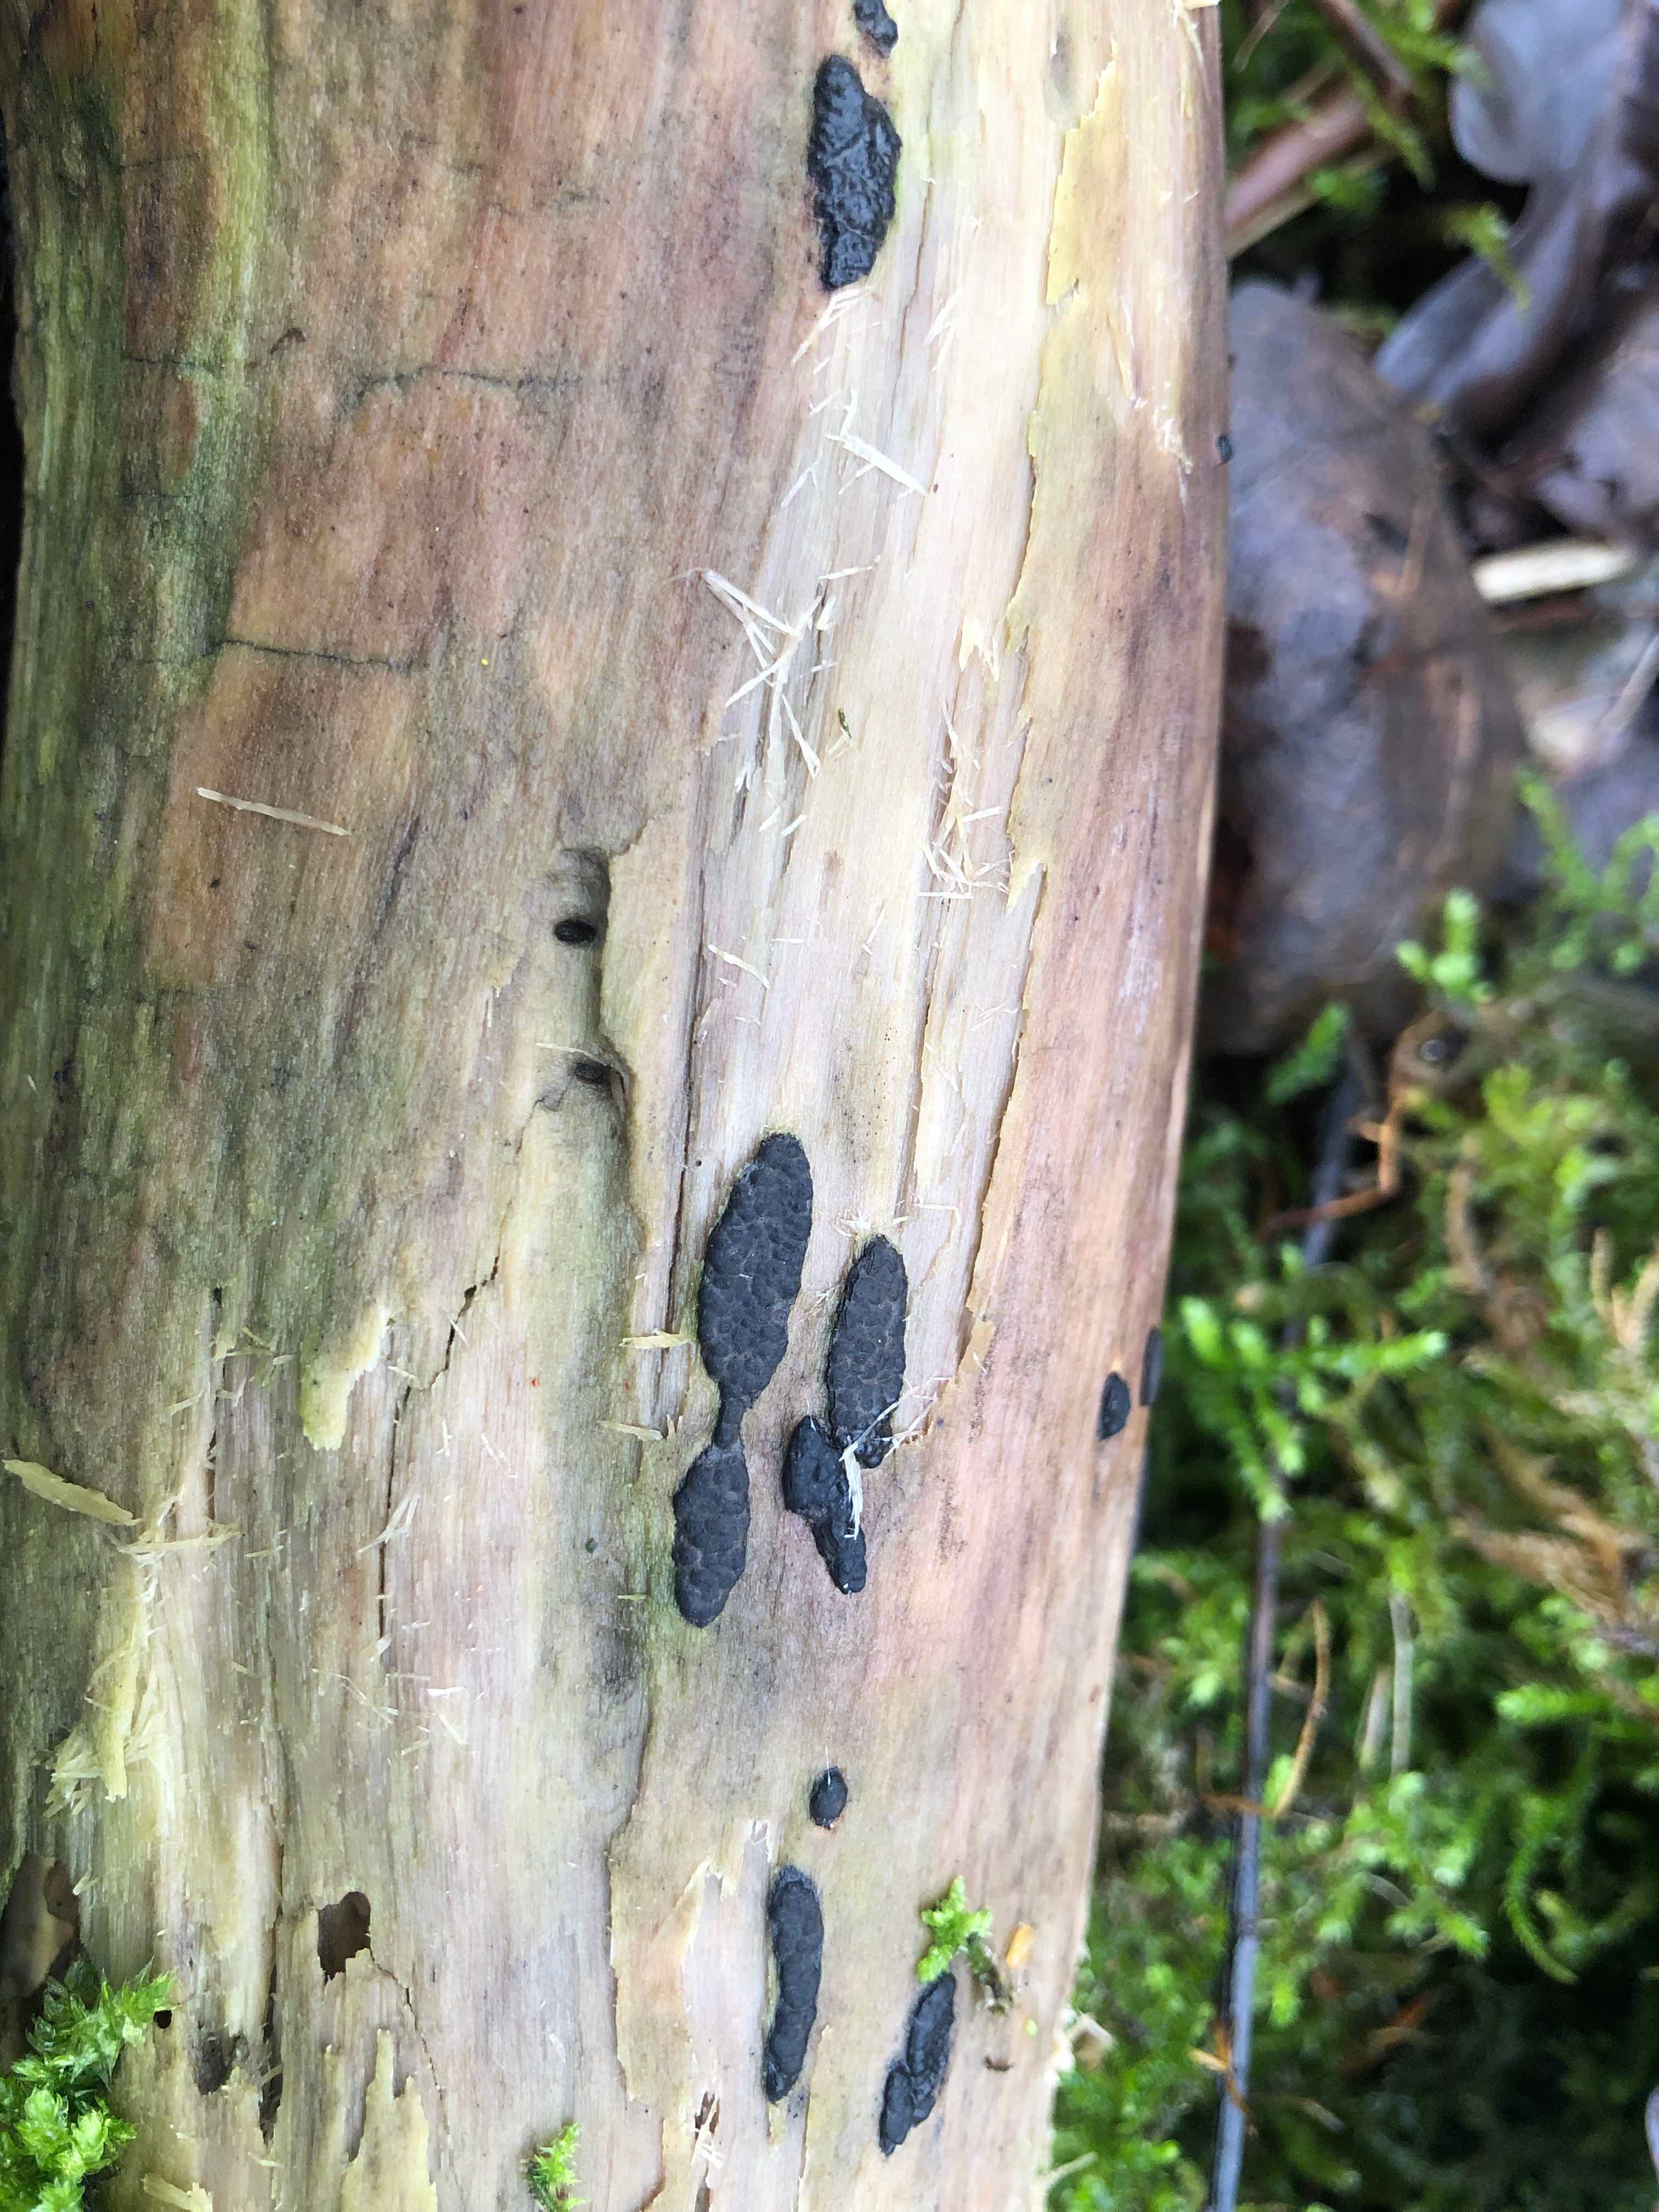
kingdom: Fungi
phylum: Ascomycota
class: Sordariomycetes
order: Xylariales
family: Xylariaceae
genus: Nemania
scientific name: Nemania serpens
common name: almindelig kuldyne
